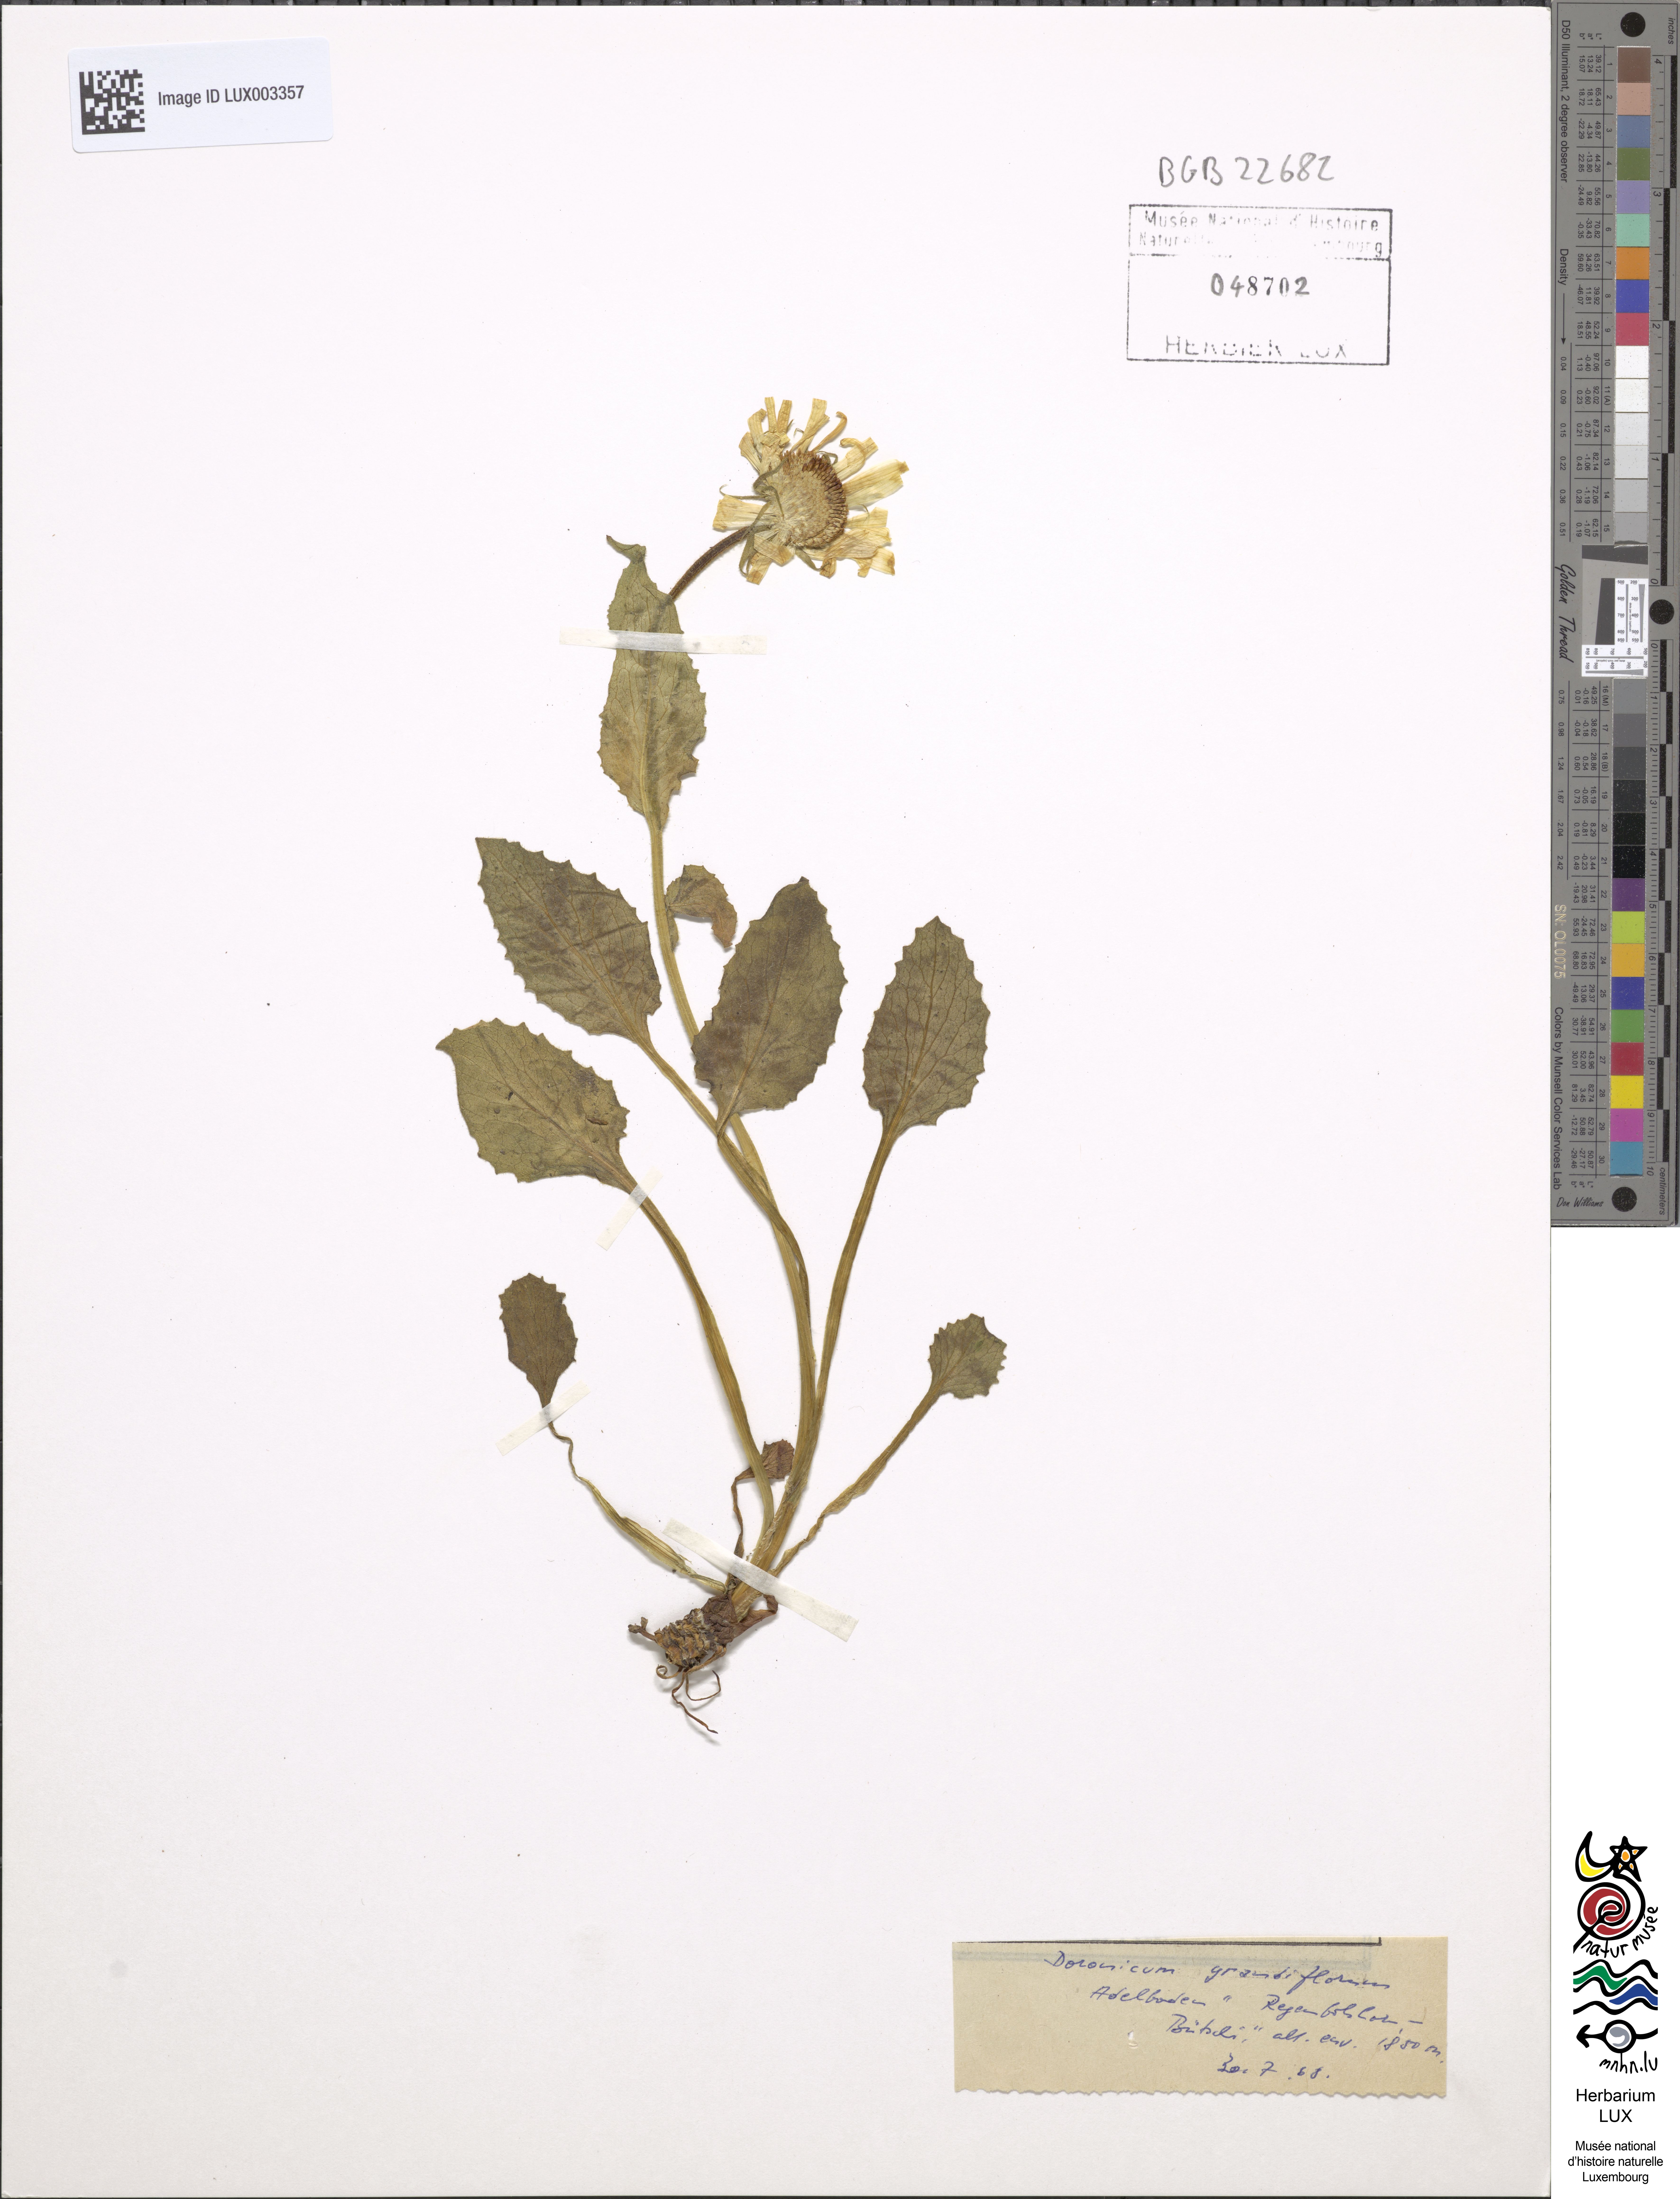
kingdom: Plantae
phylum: Tracheophyta
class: Magnoliopsida
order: Asterales
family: Asteraceae
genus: Doronicum
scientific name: Doronicum grandiflorum
